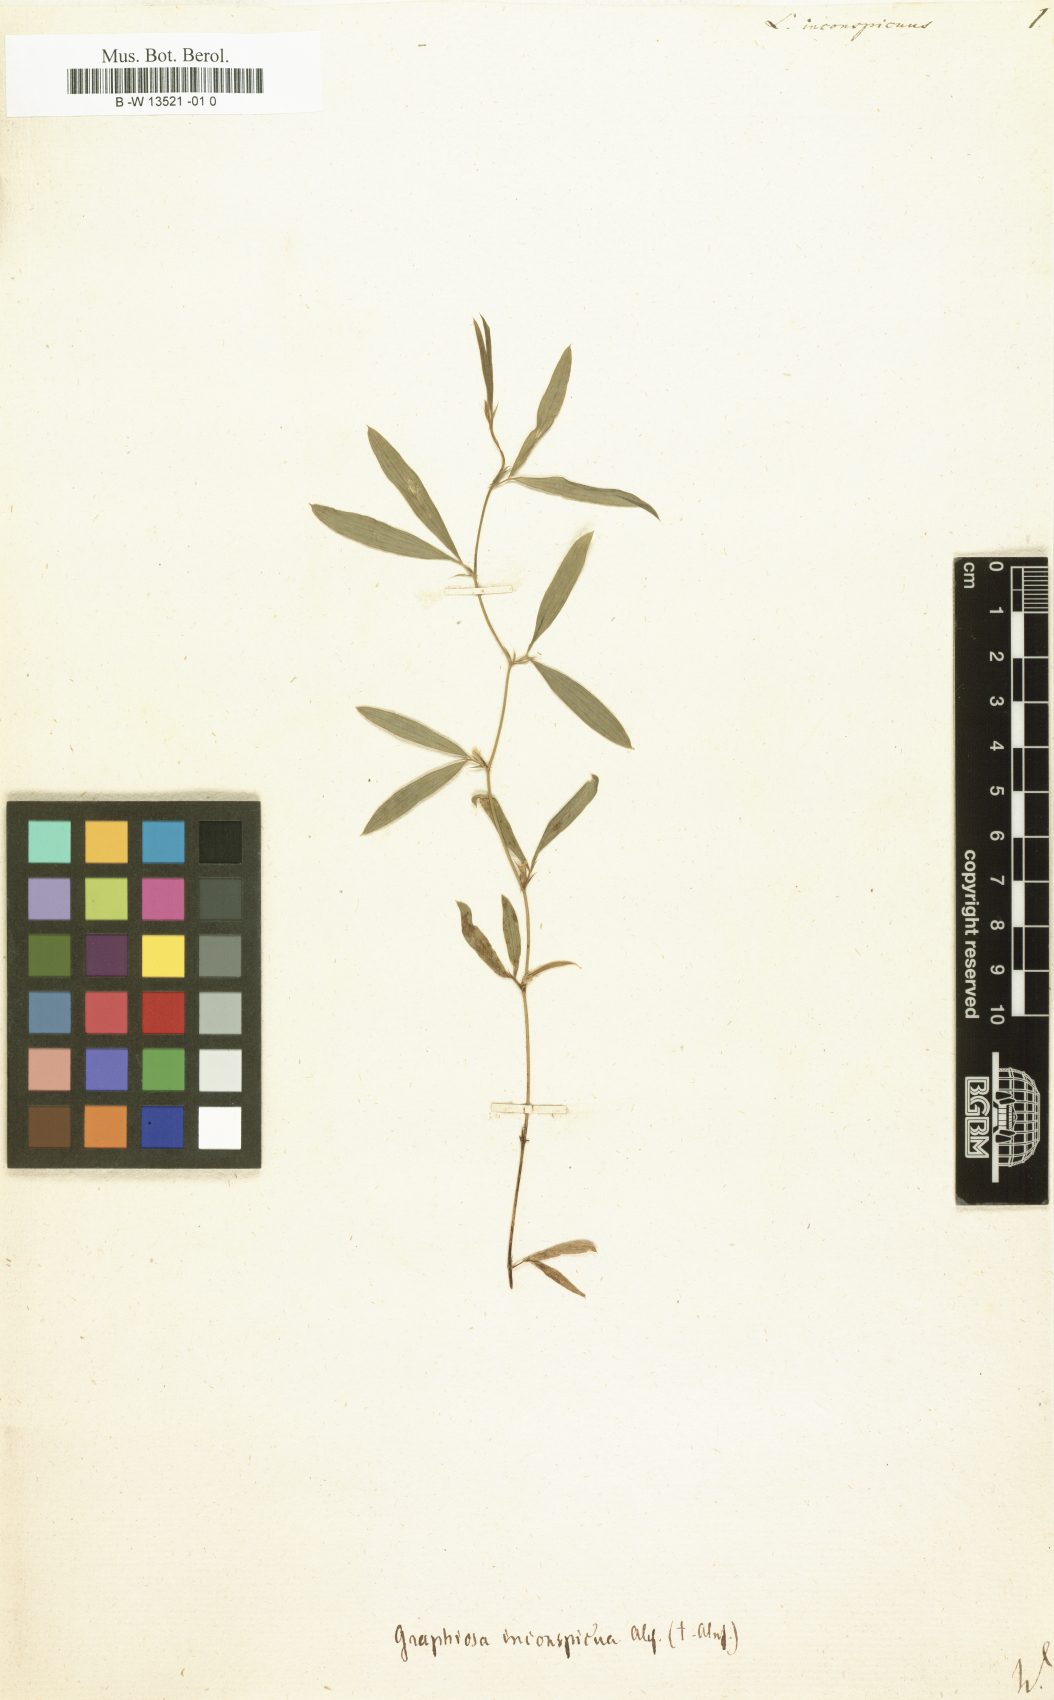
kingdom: Plantae
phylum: Tracheophyta
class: Magnoliopsida
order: Fabales
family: Fabaceae
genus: Lathyrus
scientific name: Lathyrus inconspicuus
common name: Inconspicuous pea
